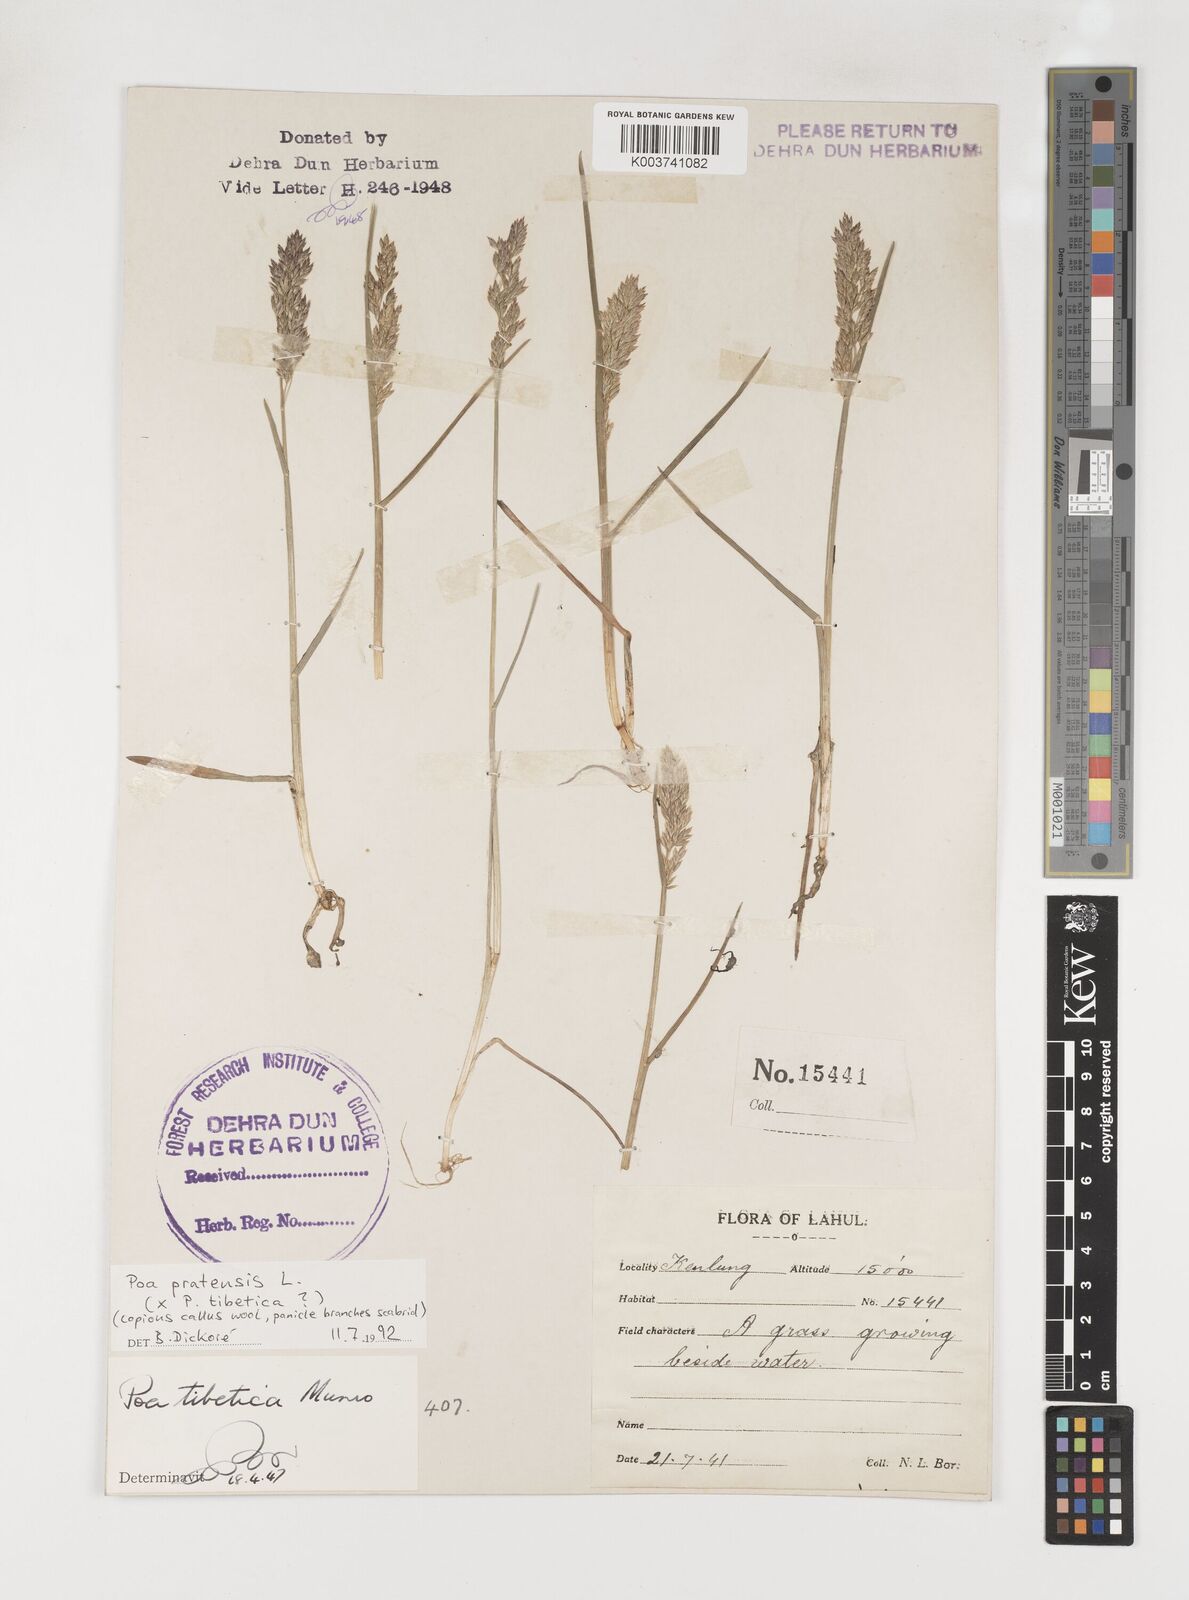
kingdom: Plantae
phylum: Tracheophyta
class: Liliopsida
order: Poales
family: Poaceae
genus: Arctopoa
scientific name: Arctopoa tibetica
